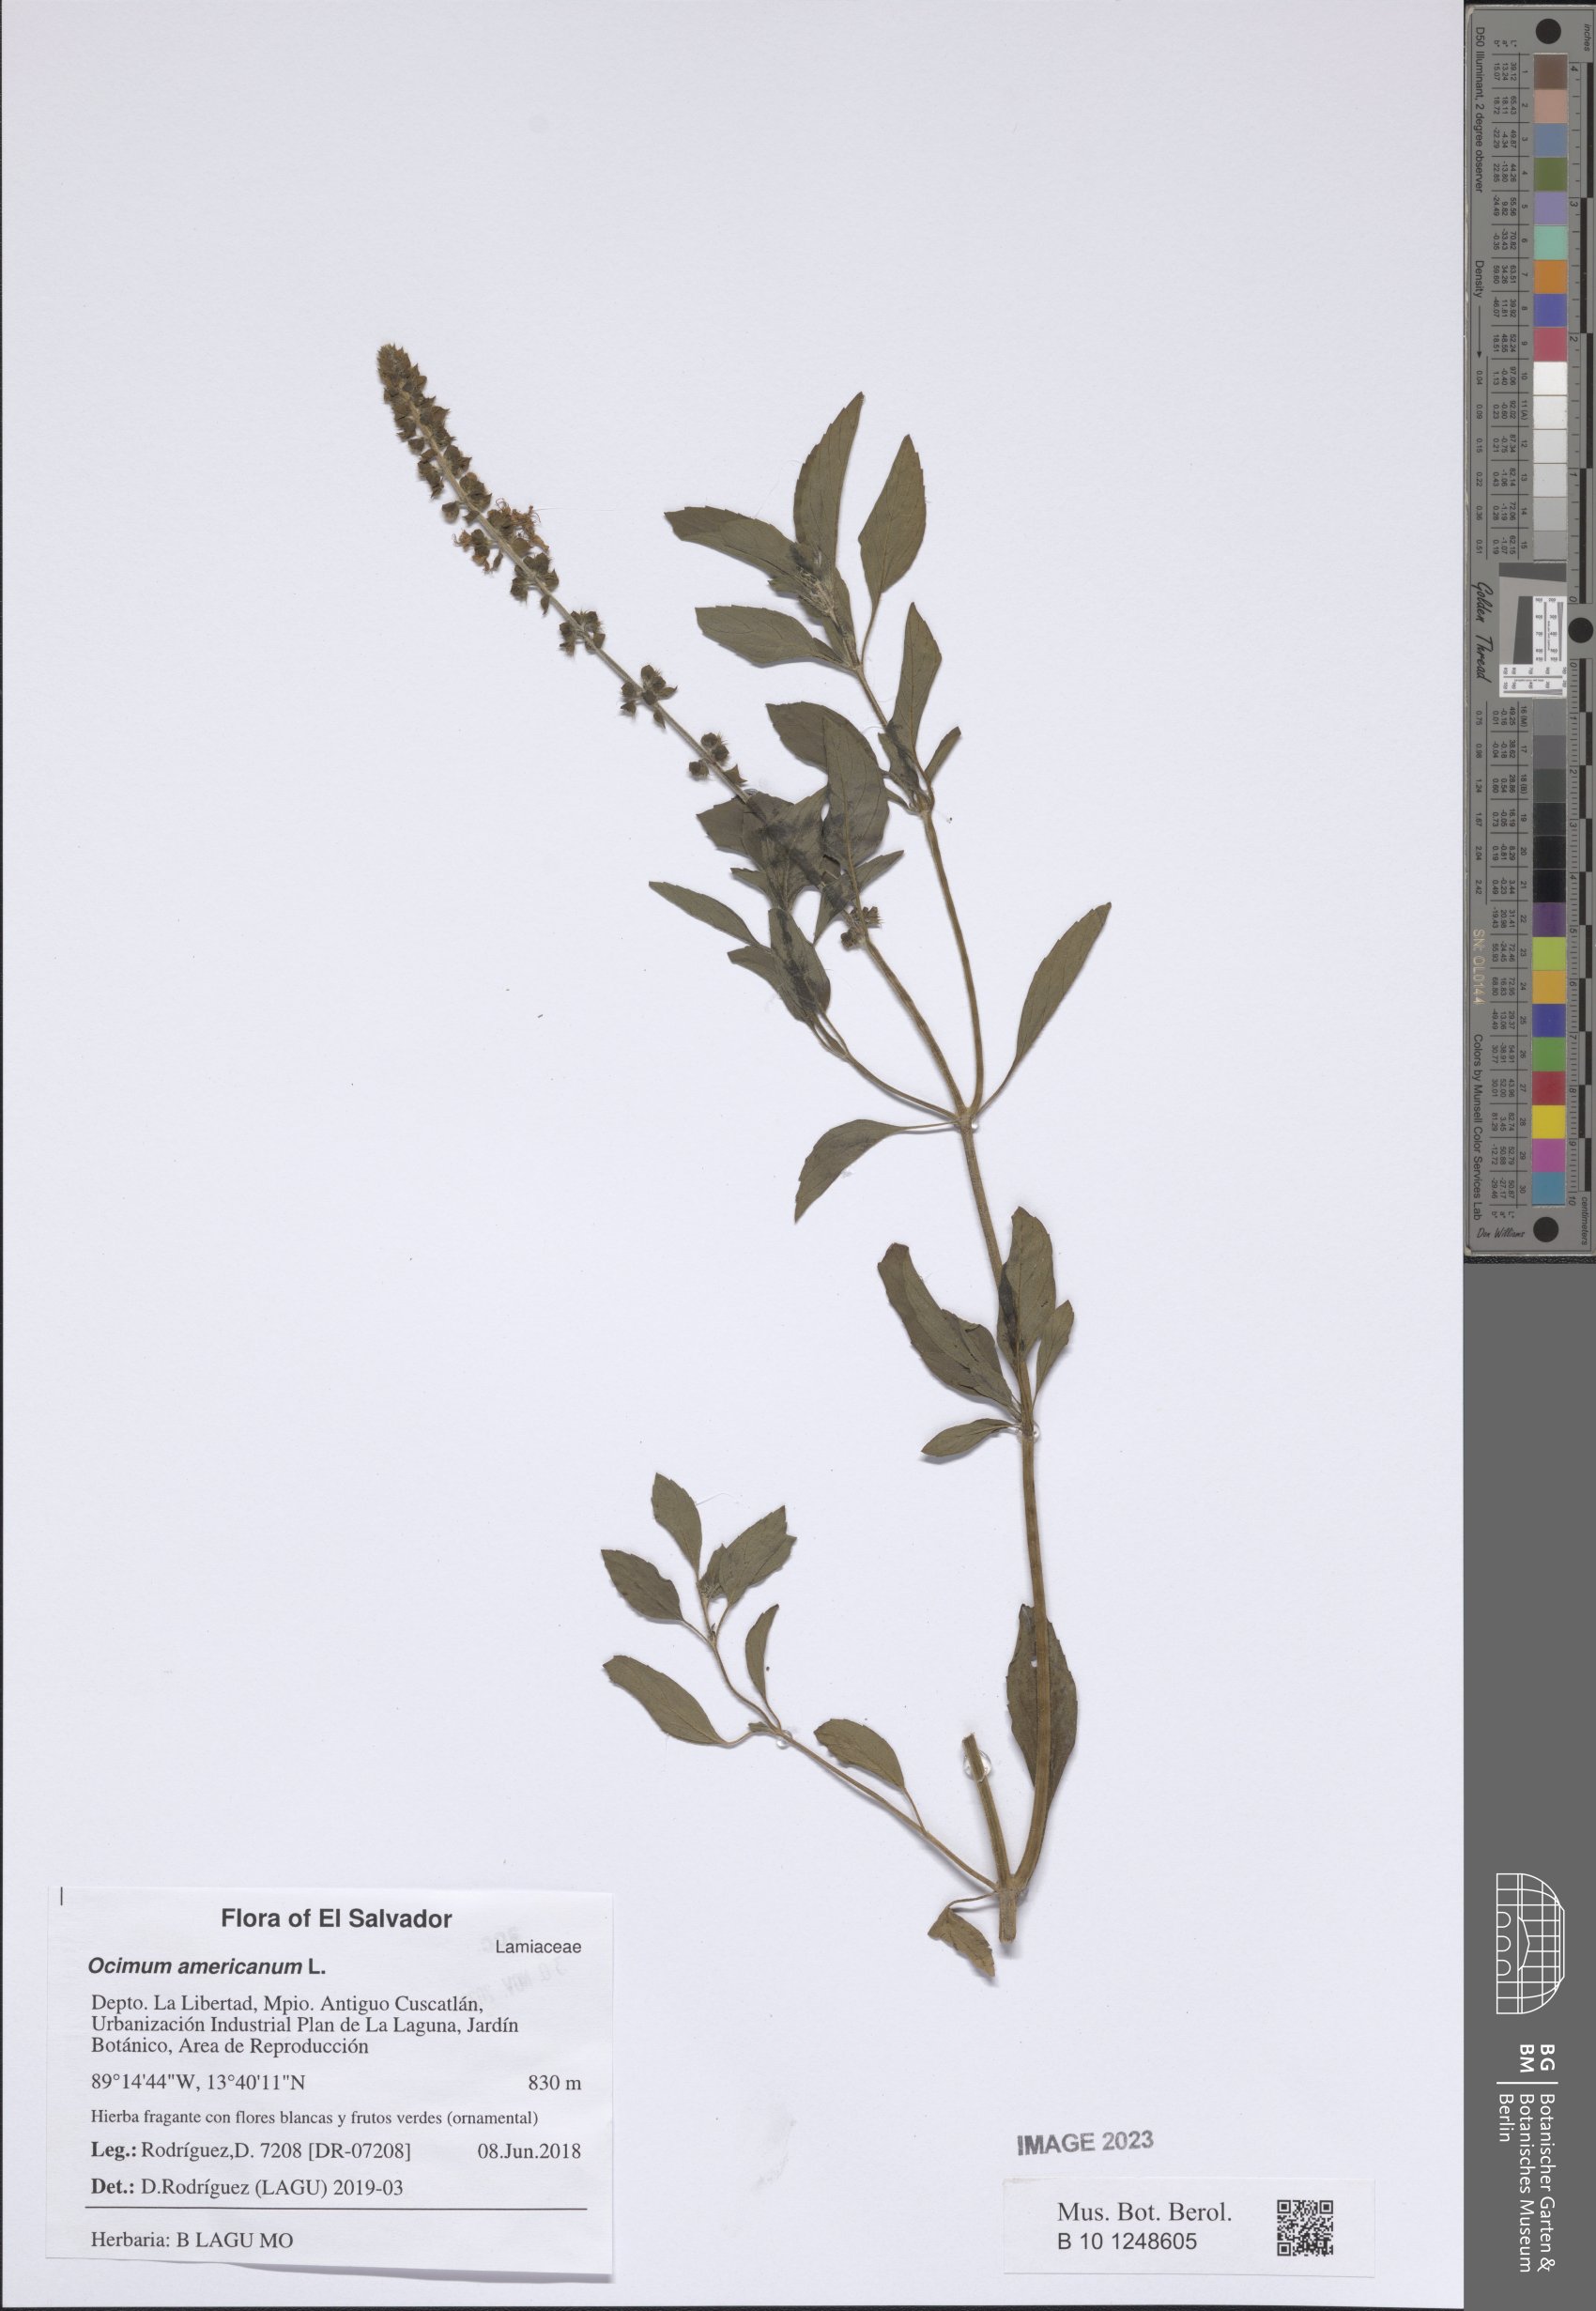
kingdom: Plantae
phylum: Tracheophyta
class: Magnoliopsida
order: Lamiales
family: Lamiaceae
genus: Ocimum
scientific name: Ocimum americanum
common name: American basil
